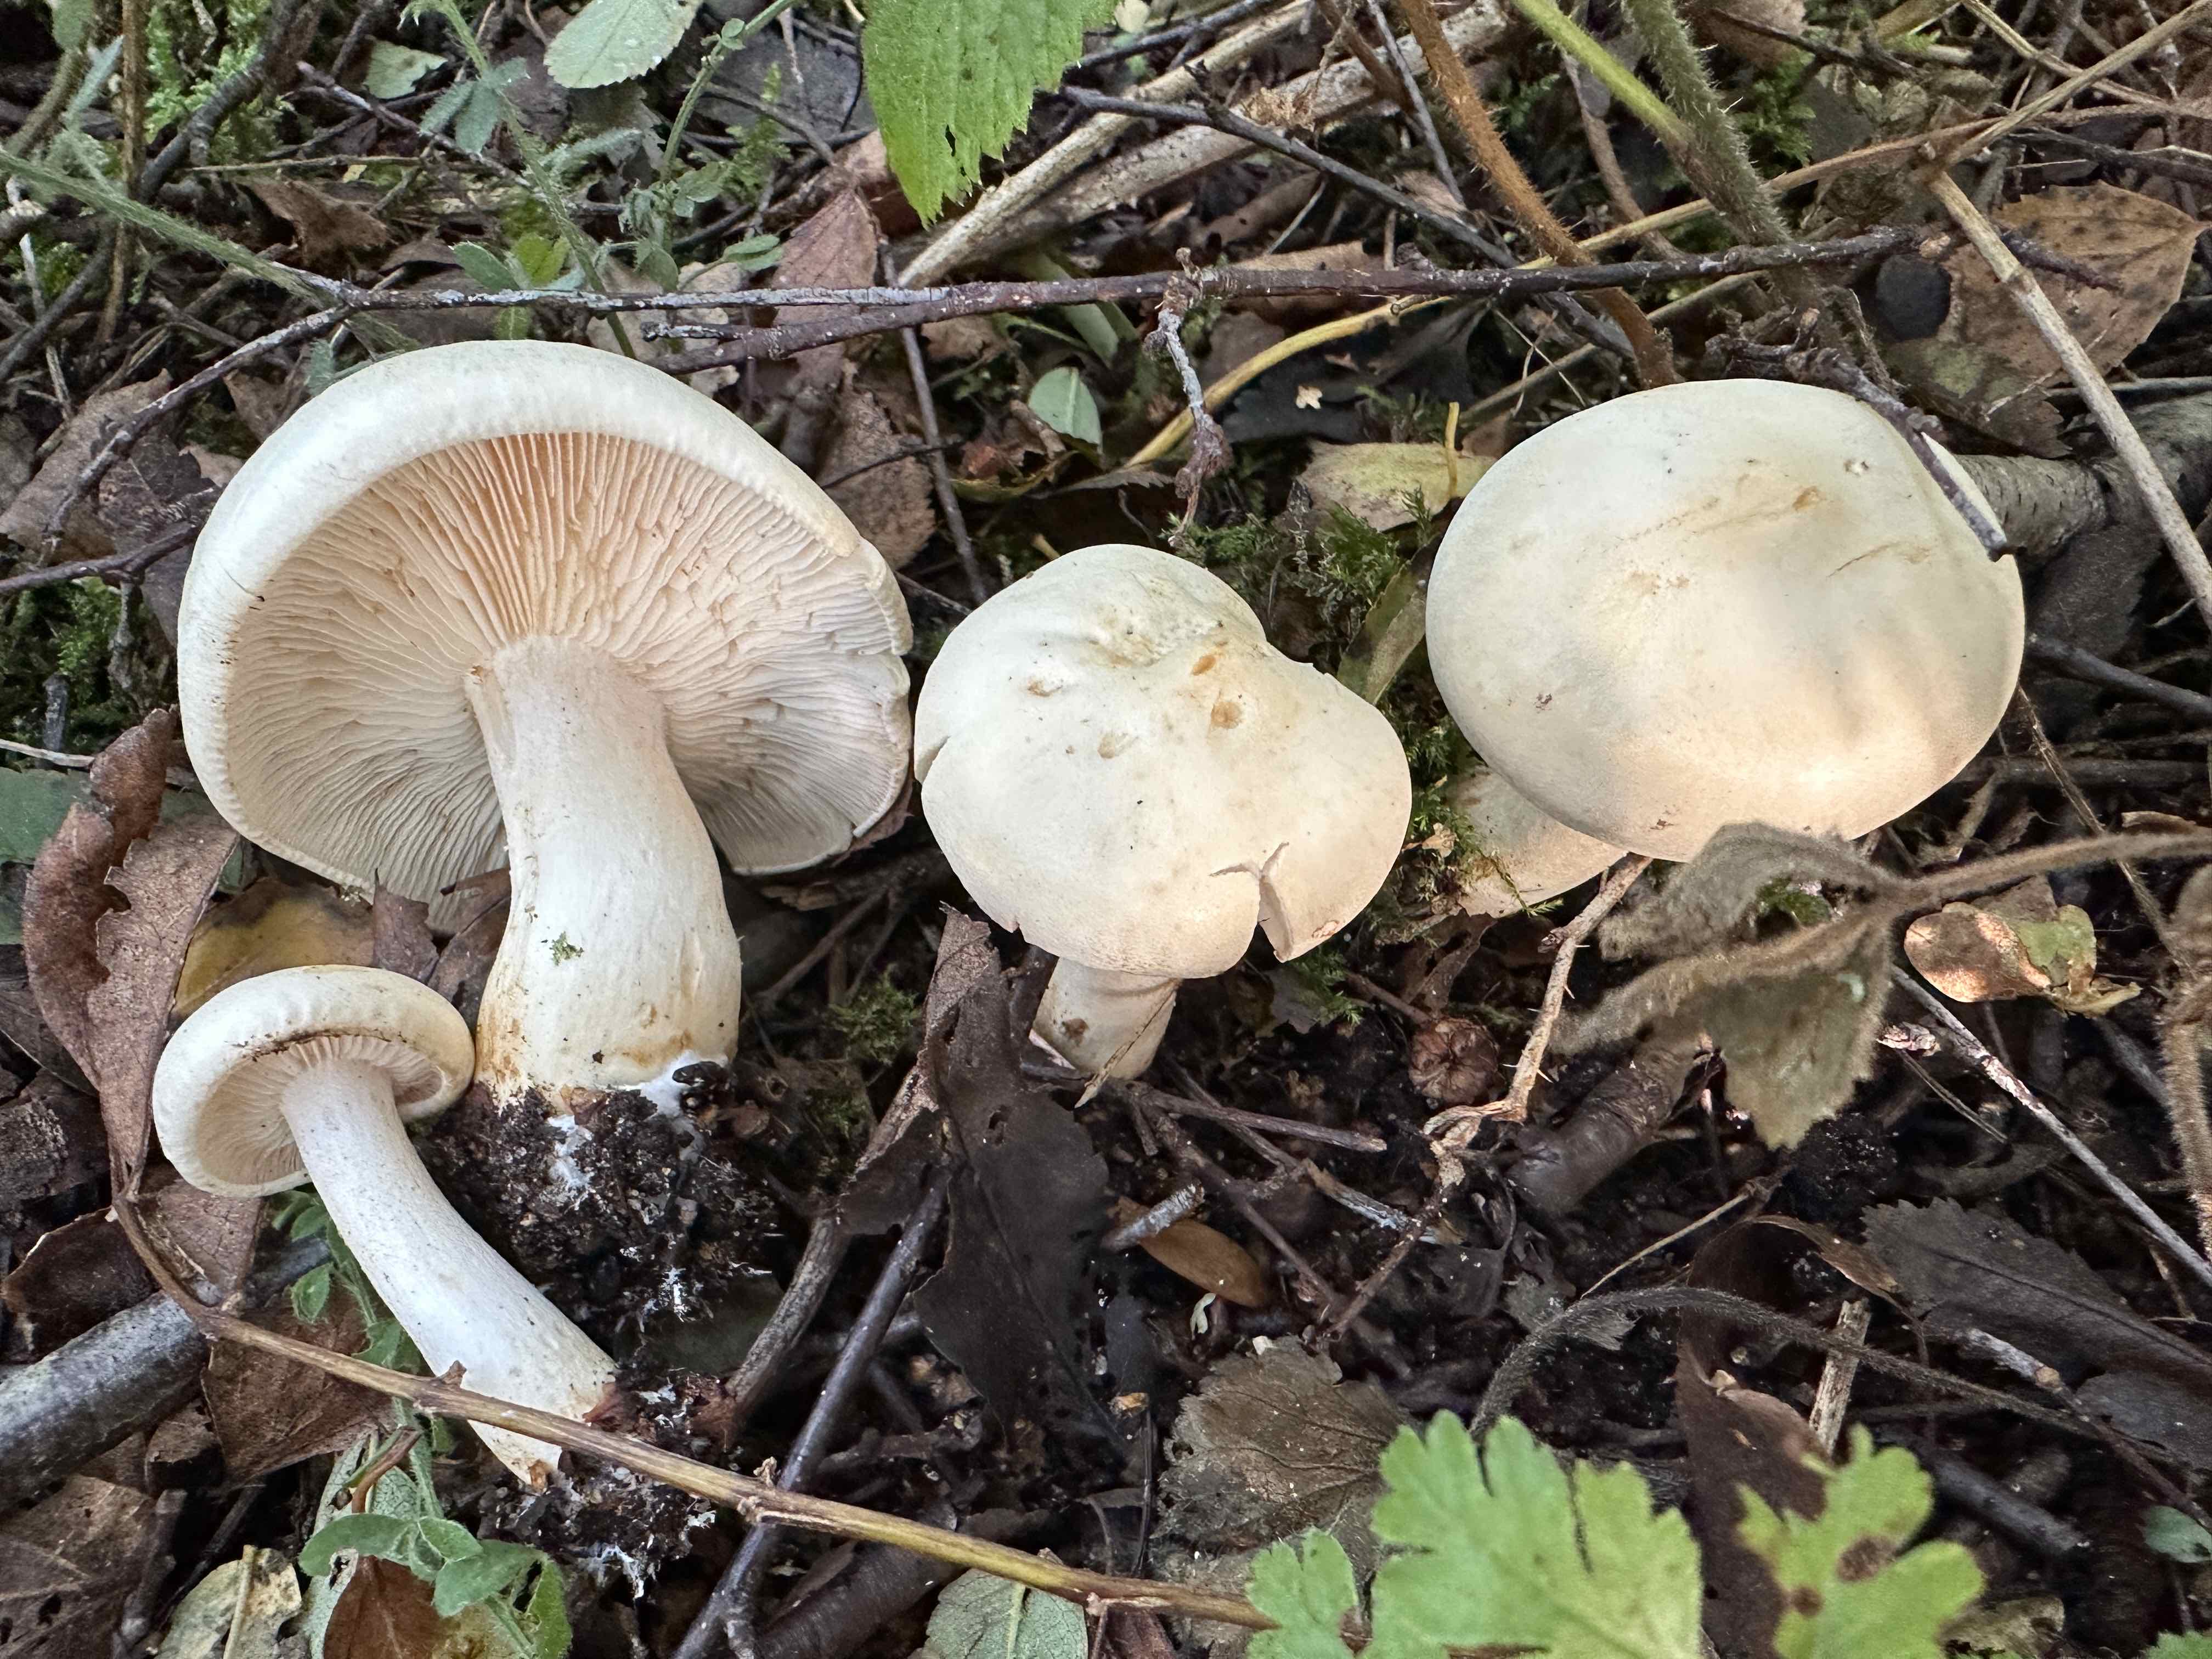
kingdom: Fungi
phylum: Basidiomycota
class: Agaricomycetes
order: Agaricales
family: Tricholomataceae
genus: Tricholoma
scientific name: Tricholoma stiparophyllum
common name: hvid ridderhat
